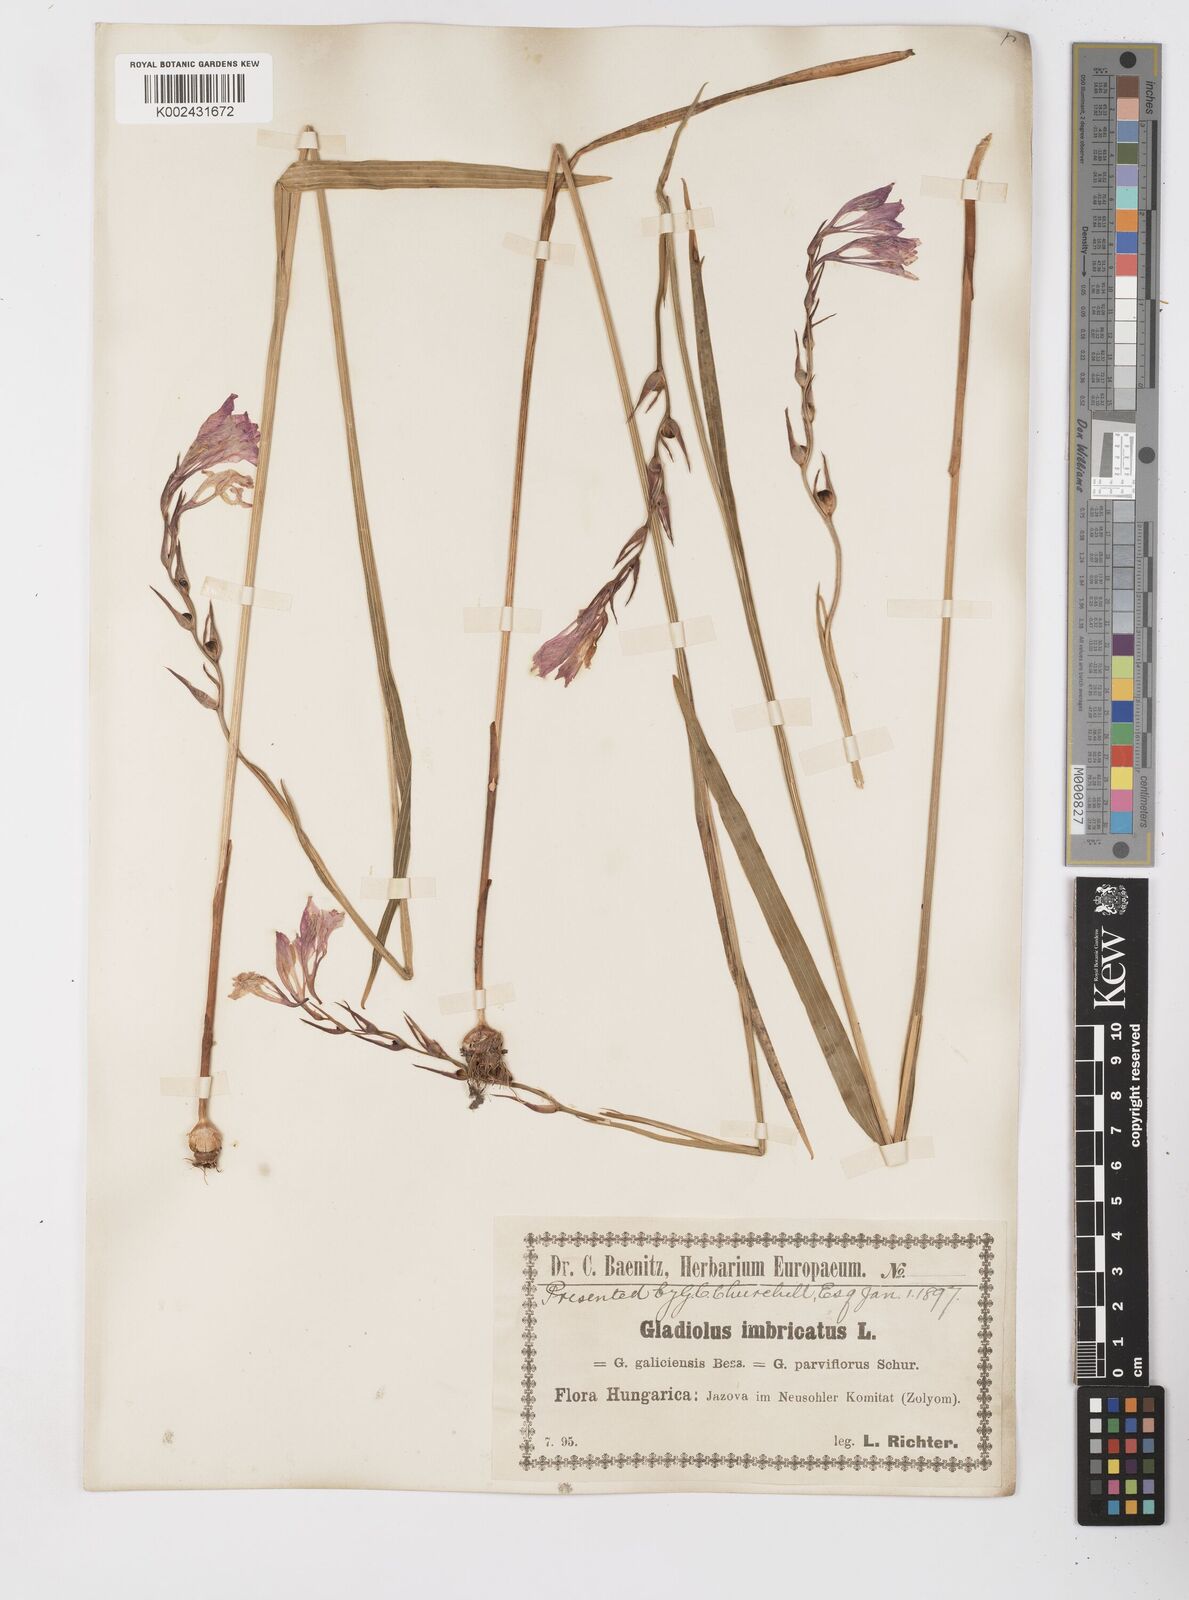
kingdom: Plantae
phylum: Tracheophyta
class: Liliopsida
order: Asparagales
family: Iridaceae
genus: Gladiolus
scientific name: Gladiolus imbricatus
